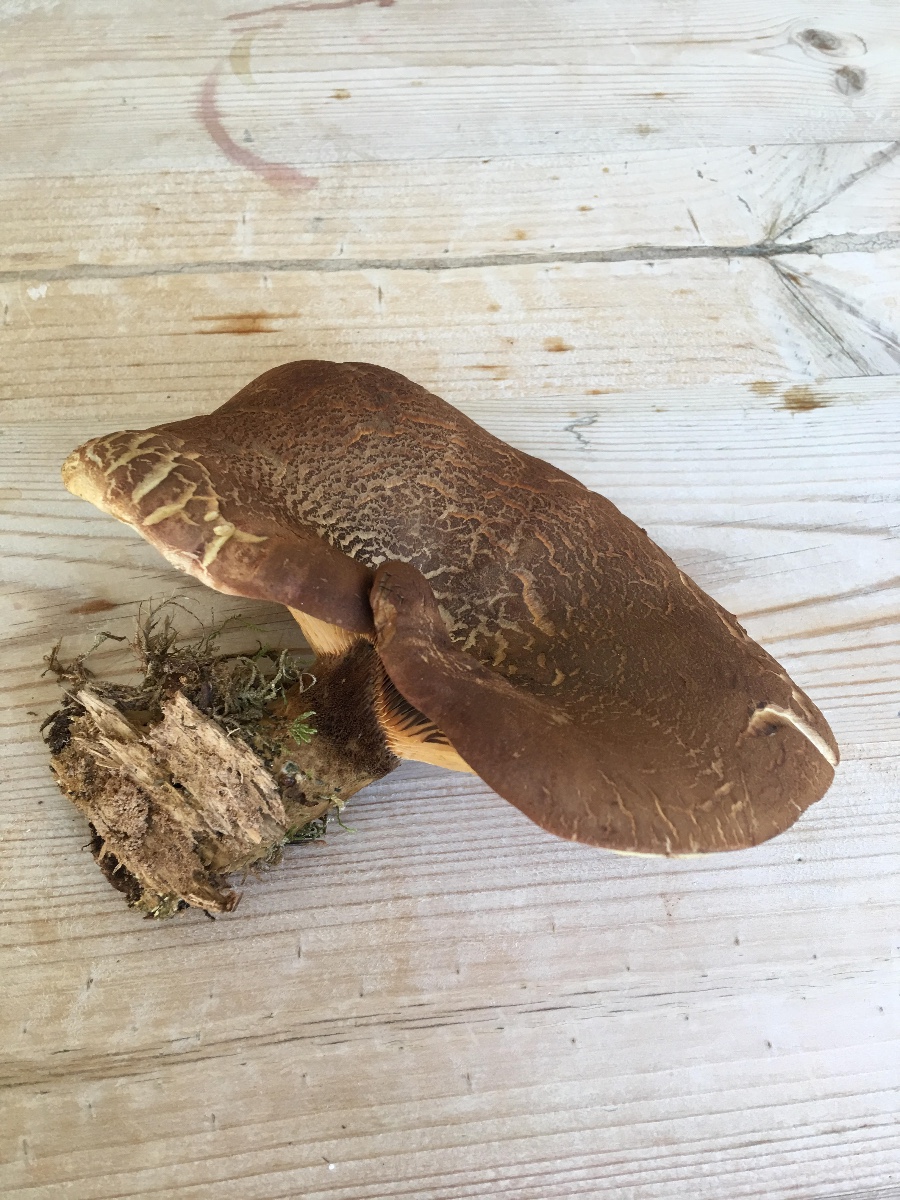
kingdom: Fungi
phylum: Basidiomycota
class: Agaricomycetes
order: Boletales
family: Tapinellaceae
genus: Tapinella
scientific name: Tapinella atrotomentosa
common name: sortfiltet viftesvamp
